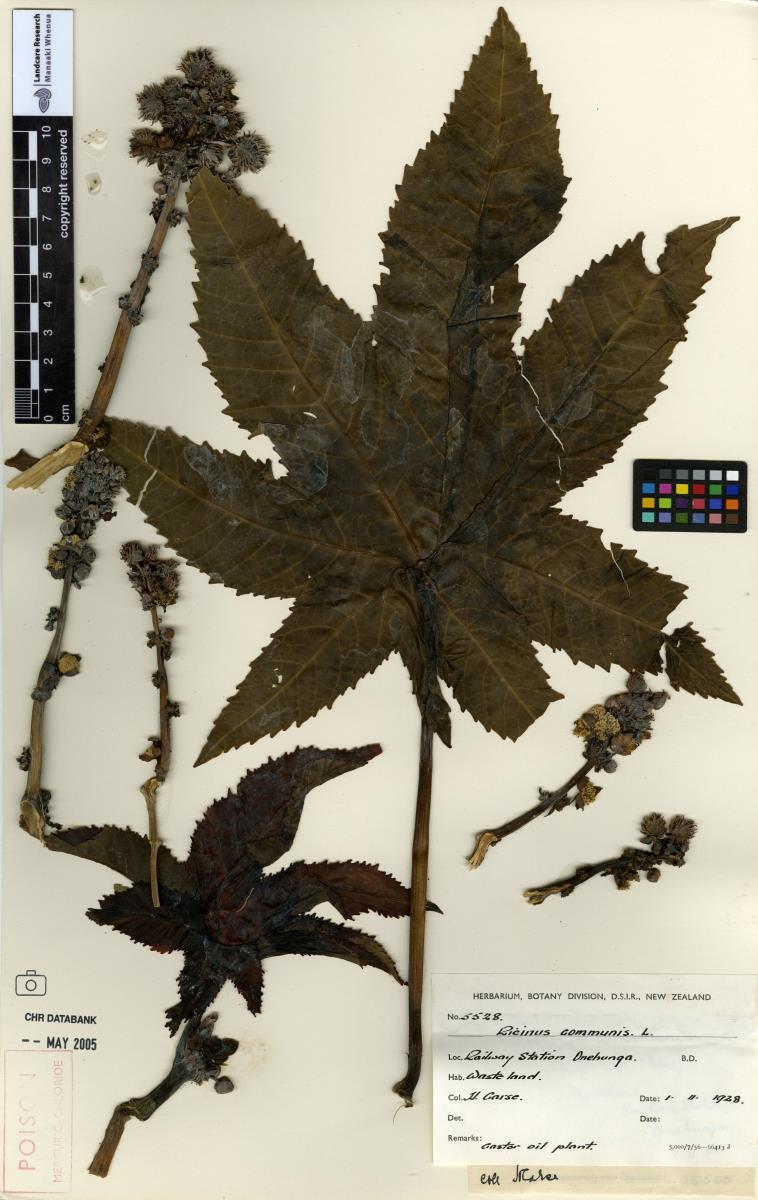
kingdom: Plantae
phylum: Tracheophyta
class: Magnoliopsida
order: Malpighiales
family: Euphorbiaceae
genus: Ricinus
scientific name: Ricinus communis
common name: Castor-oil-plant
